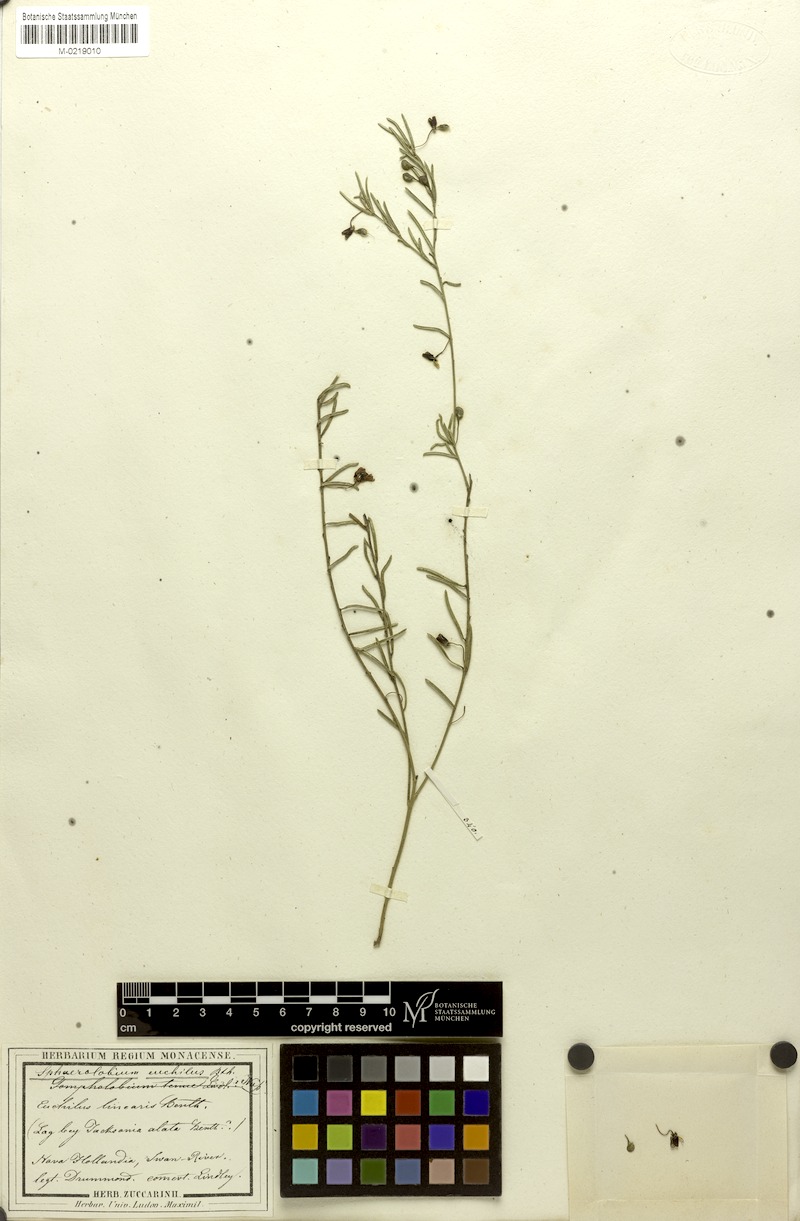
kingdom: Plantae
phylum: Tracheophyta
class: Magnoliopsida
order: Fabales
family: Fabaceae
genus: Euchilopsis
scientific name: Euchilopsis linearis
